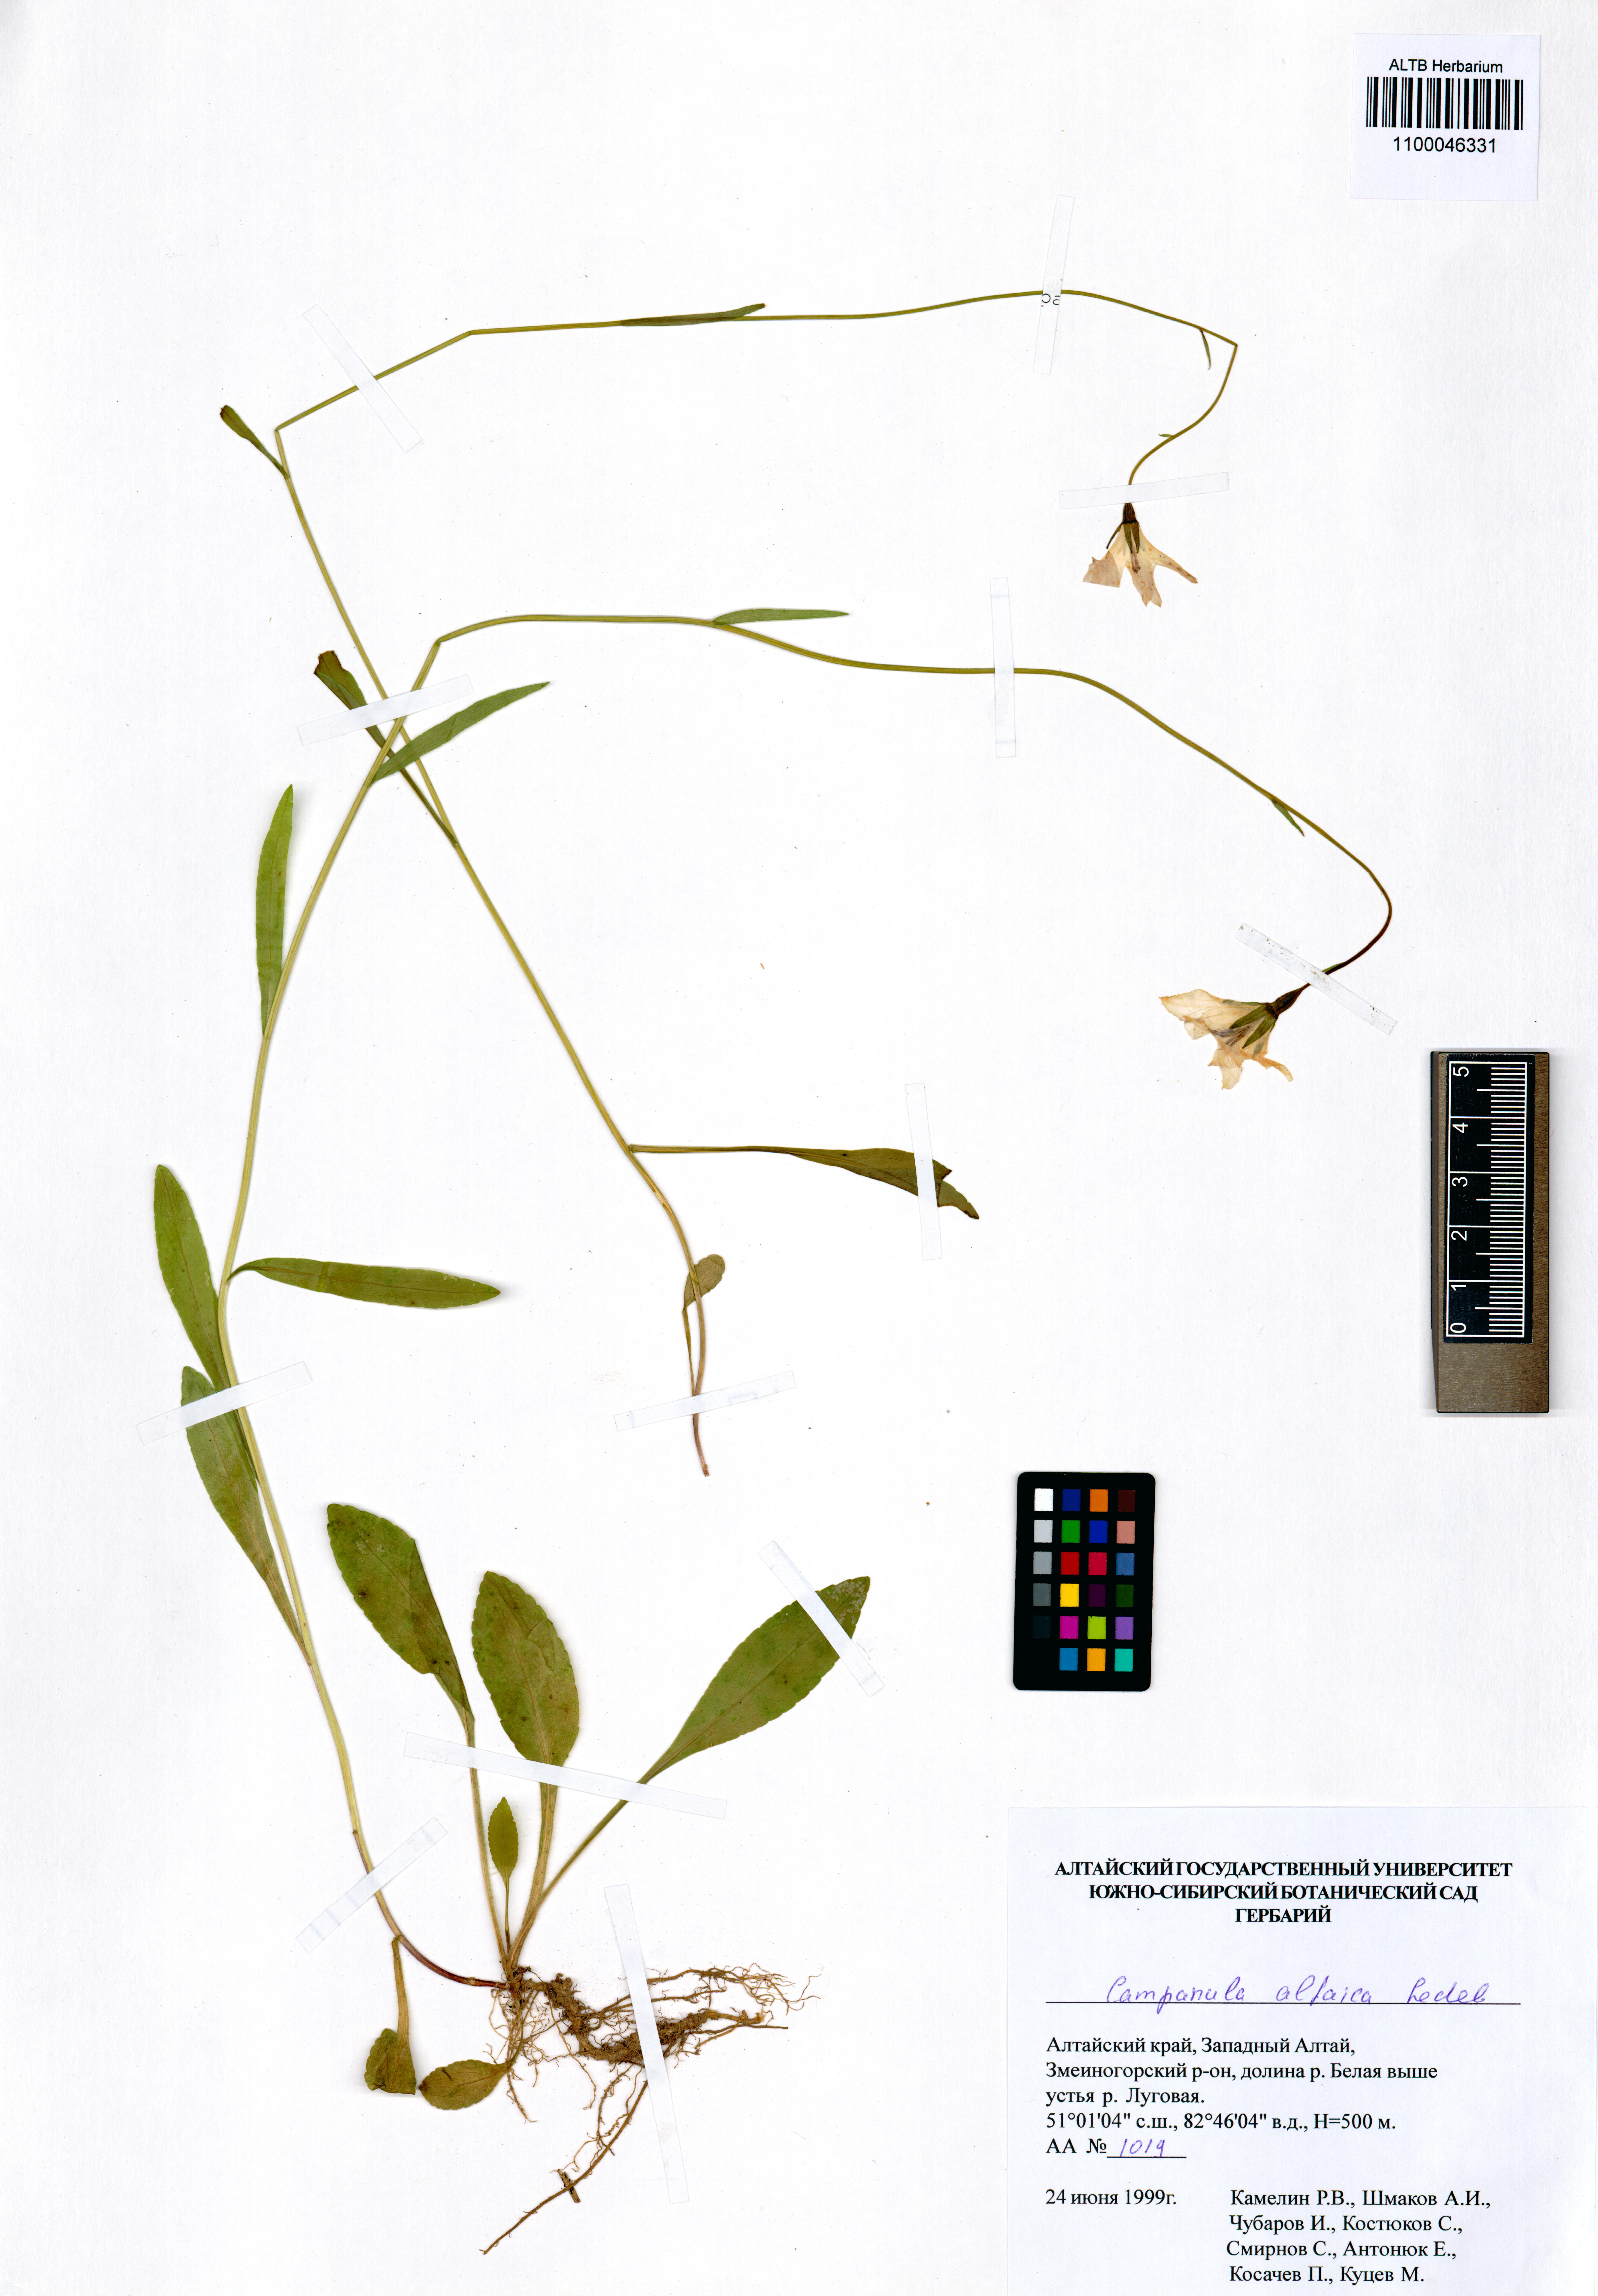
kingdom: Plantae
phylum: Tracheophyta
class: Magnoliopsida
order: Asterales
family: Campanulaceae
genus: Campanula
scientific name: Campanula stevenii
